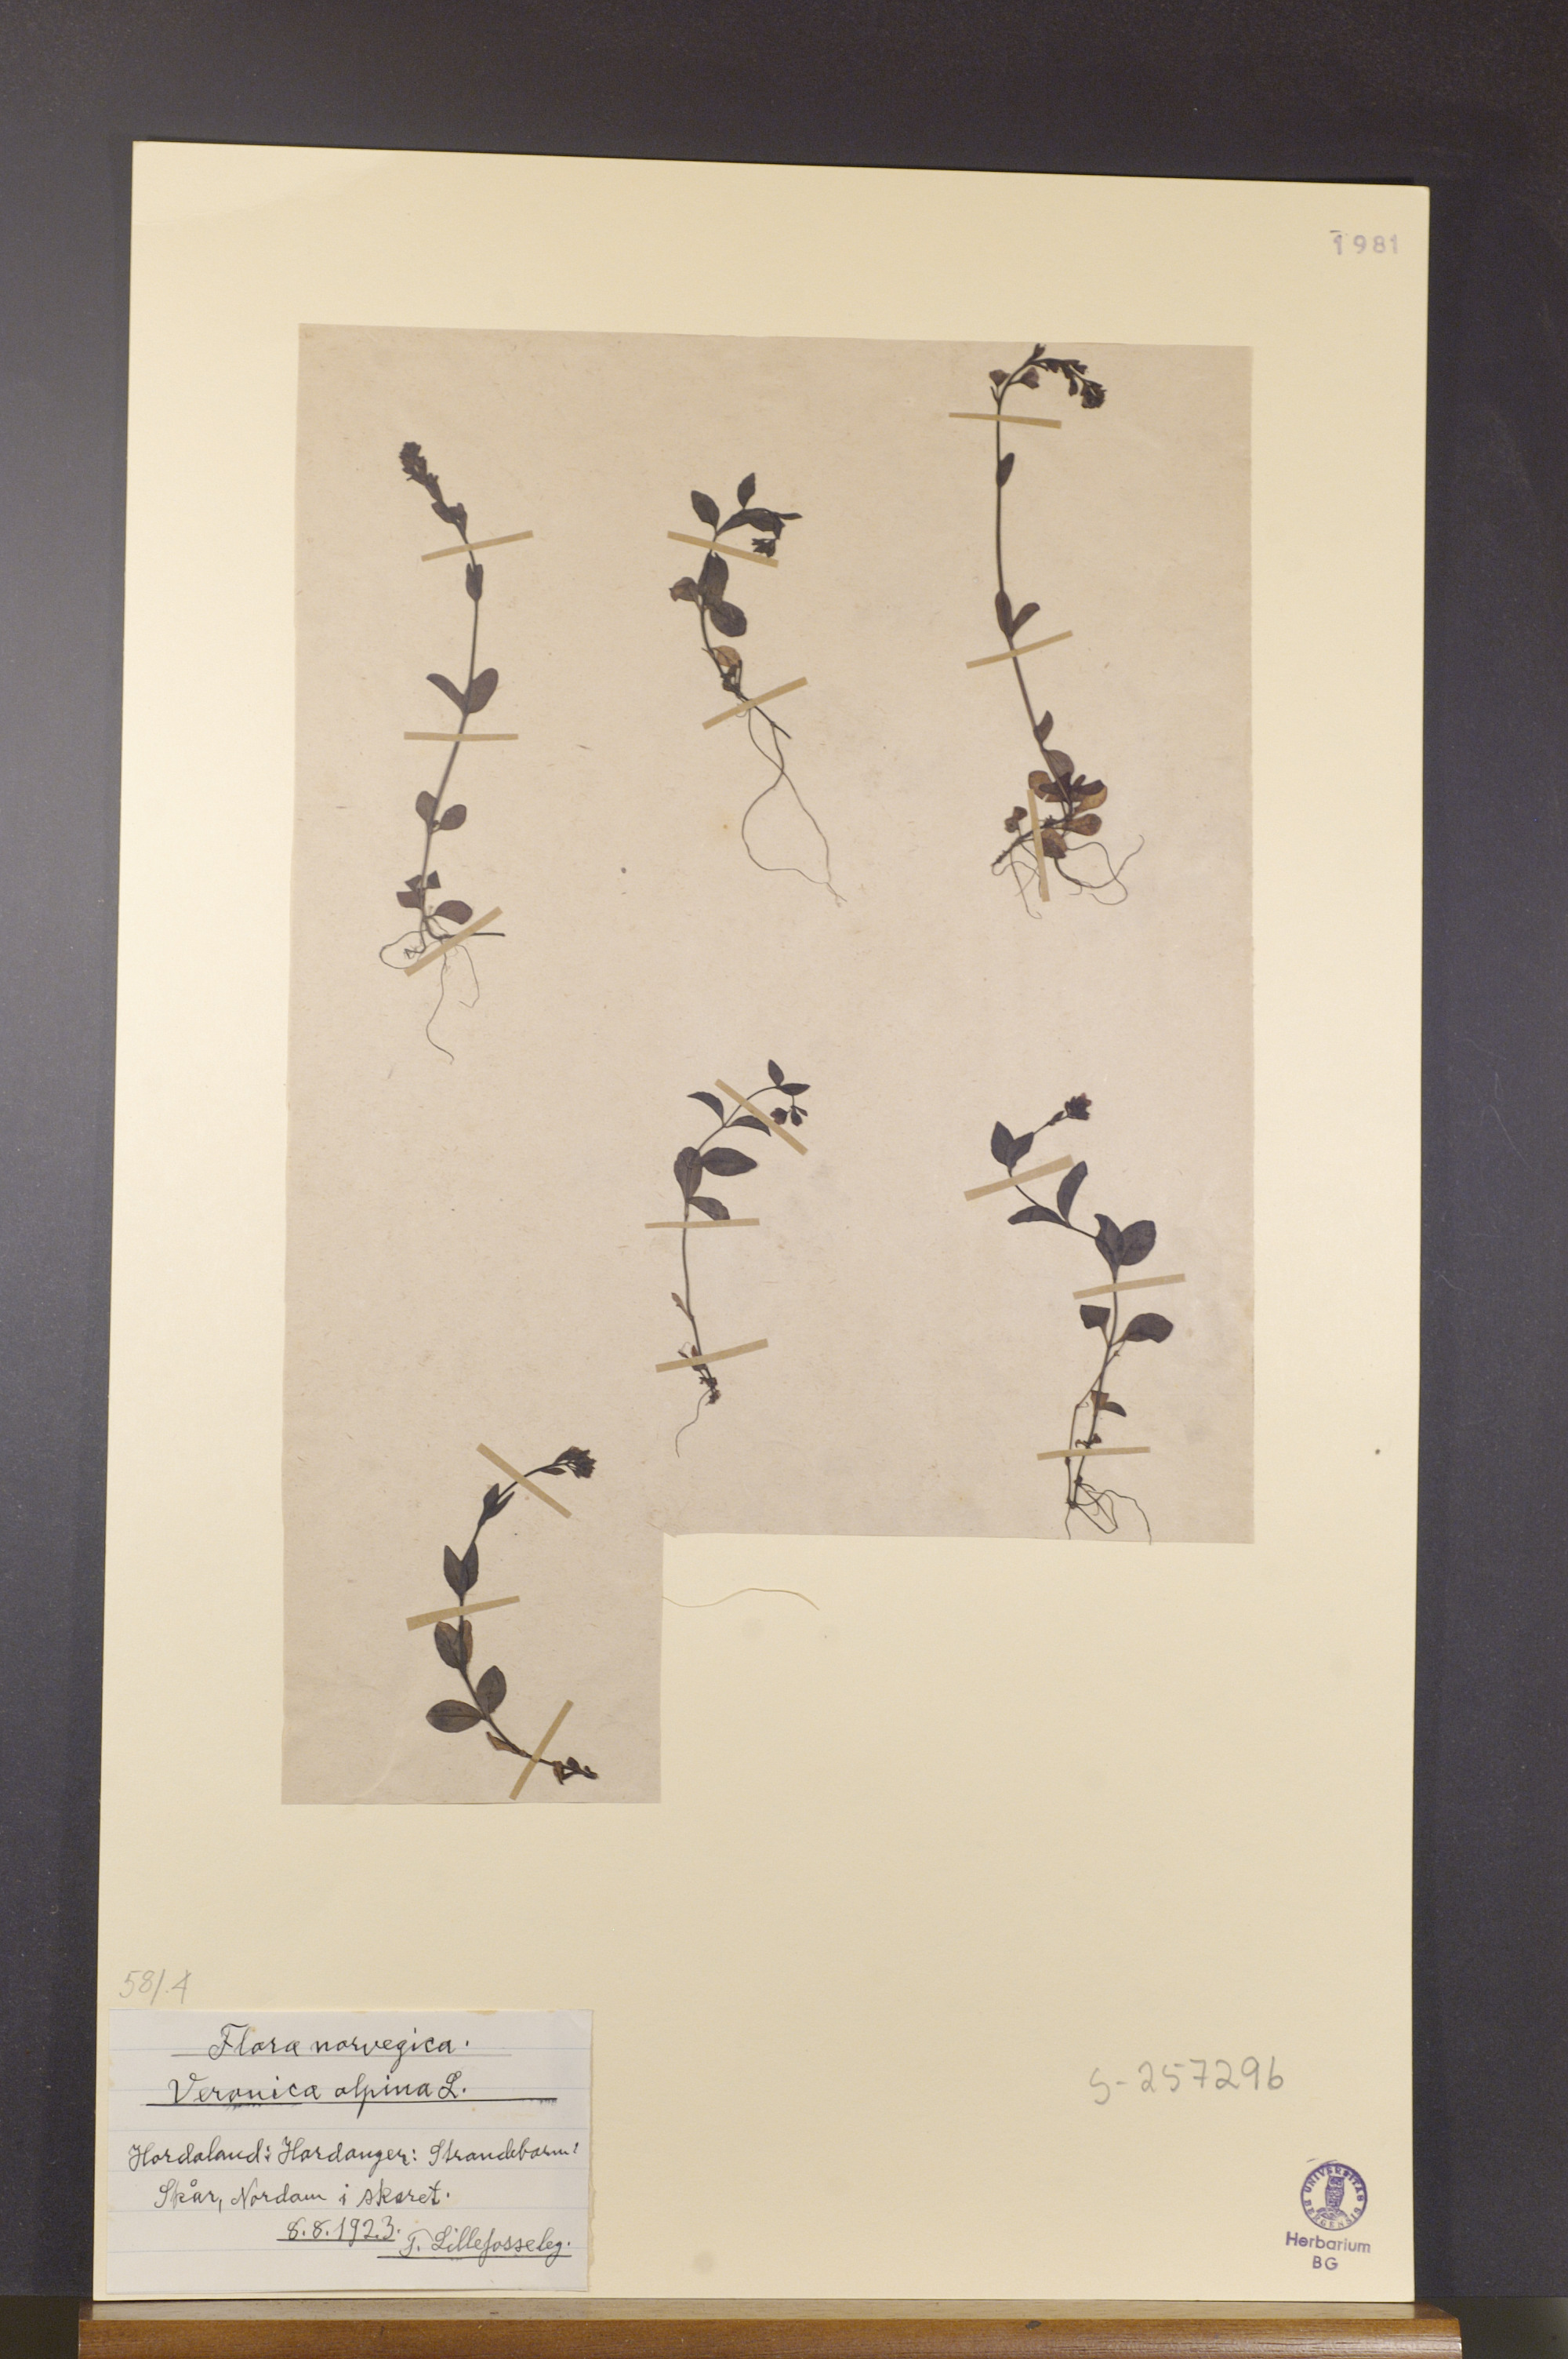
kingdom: Plantae
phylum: Tracheophyta
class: Magnoliopsida
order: Lamiales
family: Plantaginaceae
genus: Veronica
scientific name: Veronica alpina
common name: Alpine speedwell
